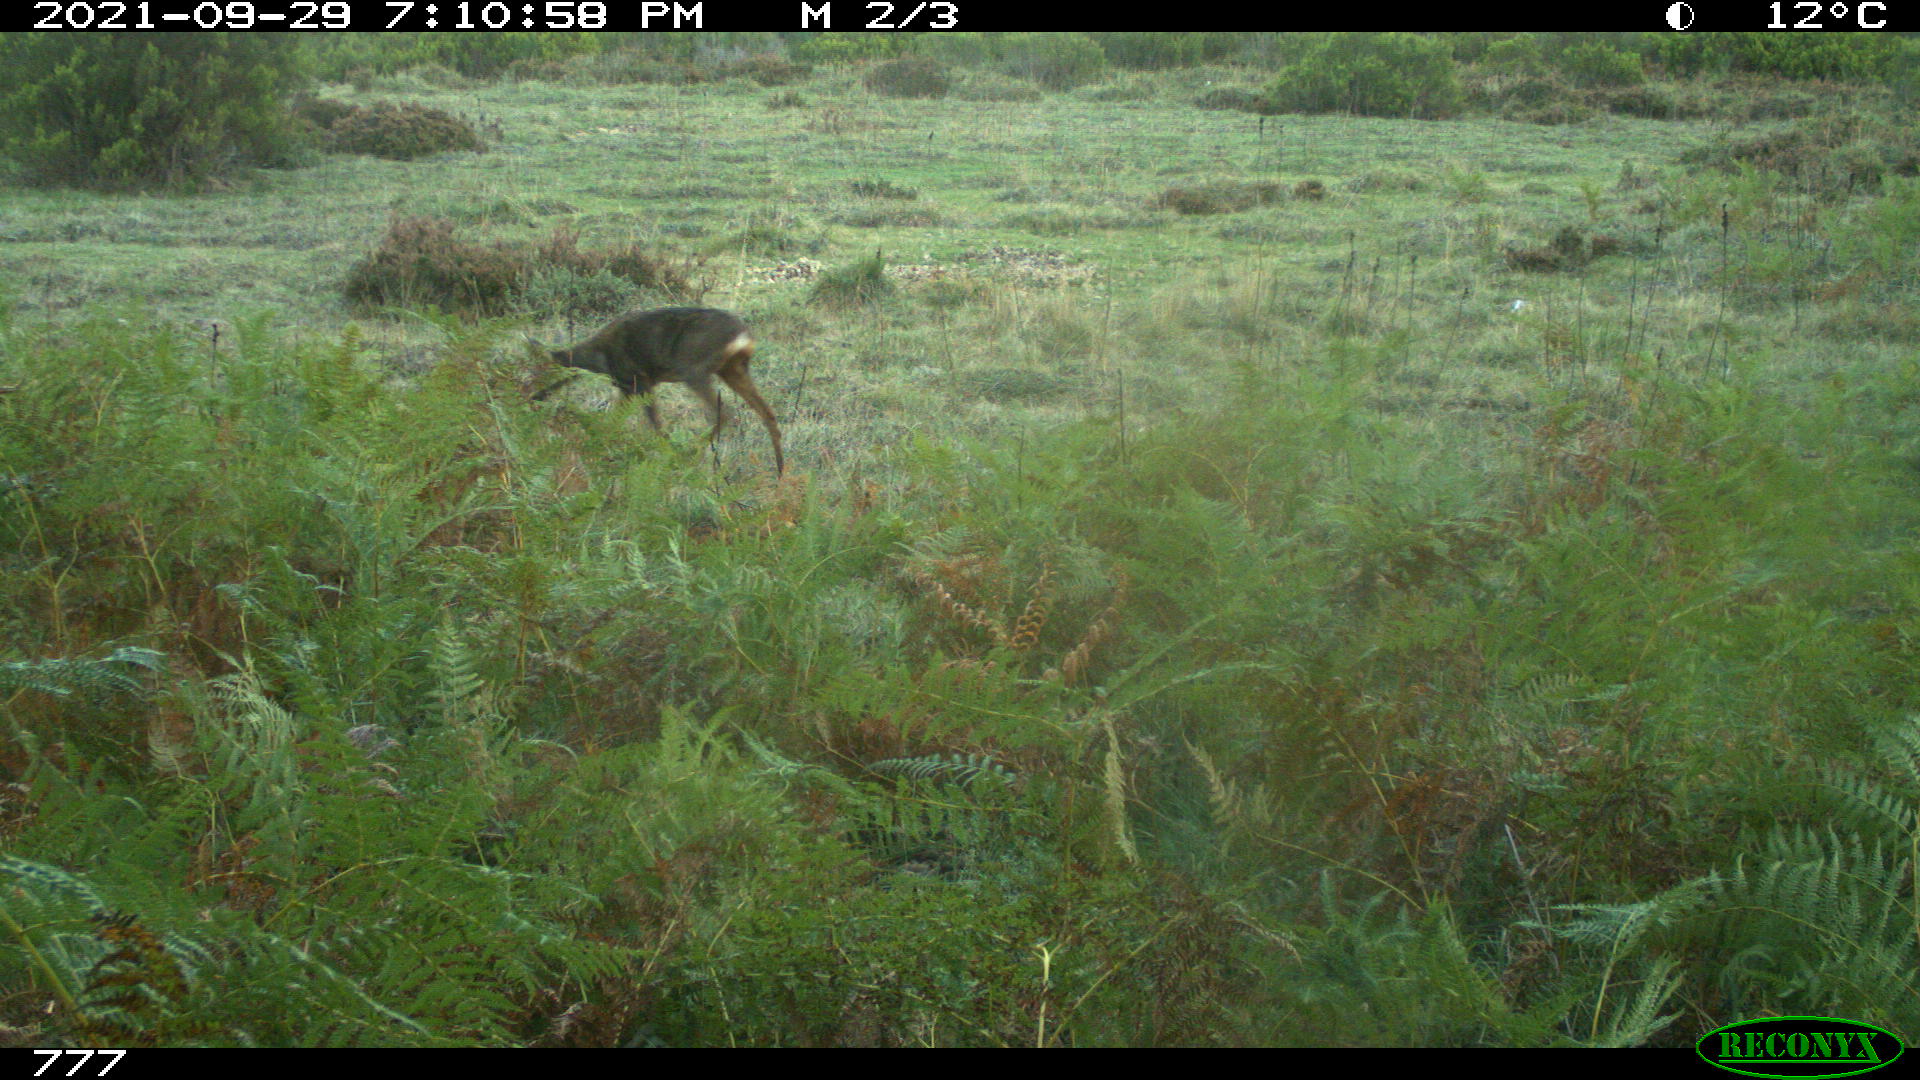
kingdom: Animalia
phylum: Chordata
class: Mammalia
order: Artiodactyla
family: Cervidae
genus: Capreolus
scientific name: Capreolus capreolus
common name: Western roe deer
